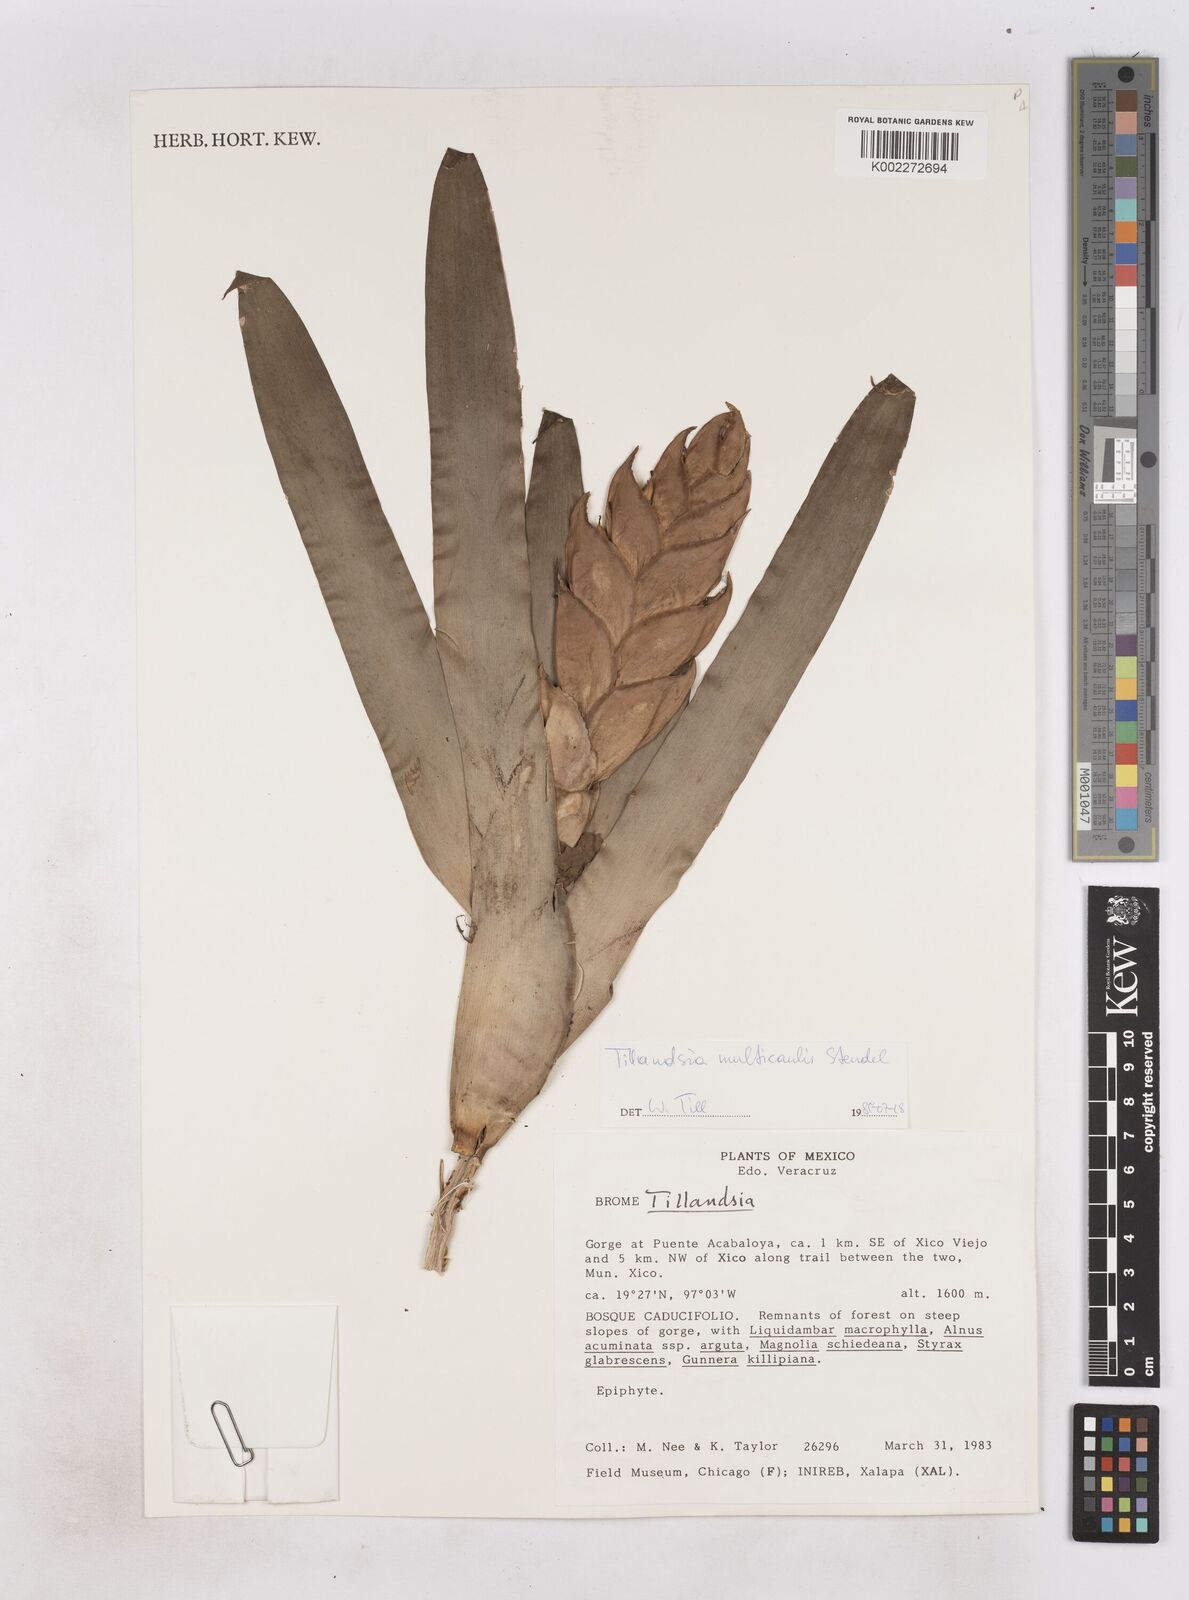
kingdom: Plantae
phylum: Tracheophyta
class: Liliopsida
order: Poales
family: Bromeliaceae
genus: Tillandsia
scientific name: Tillandsia multicaulis
